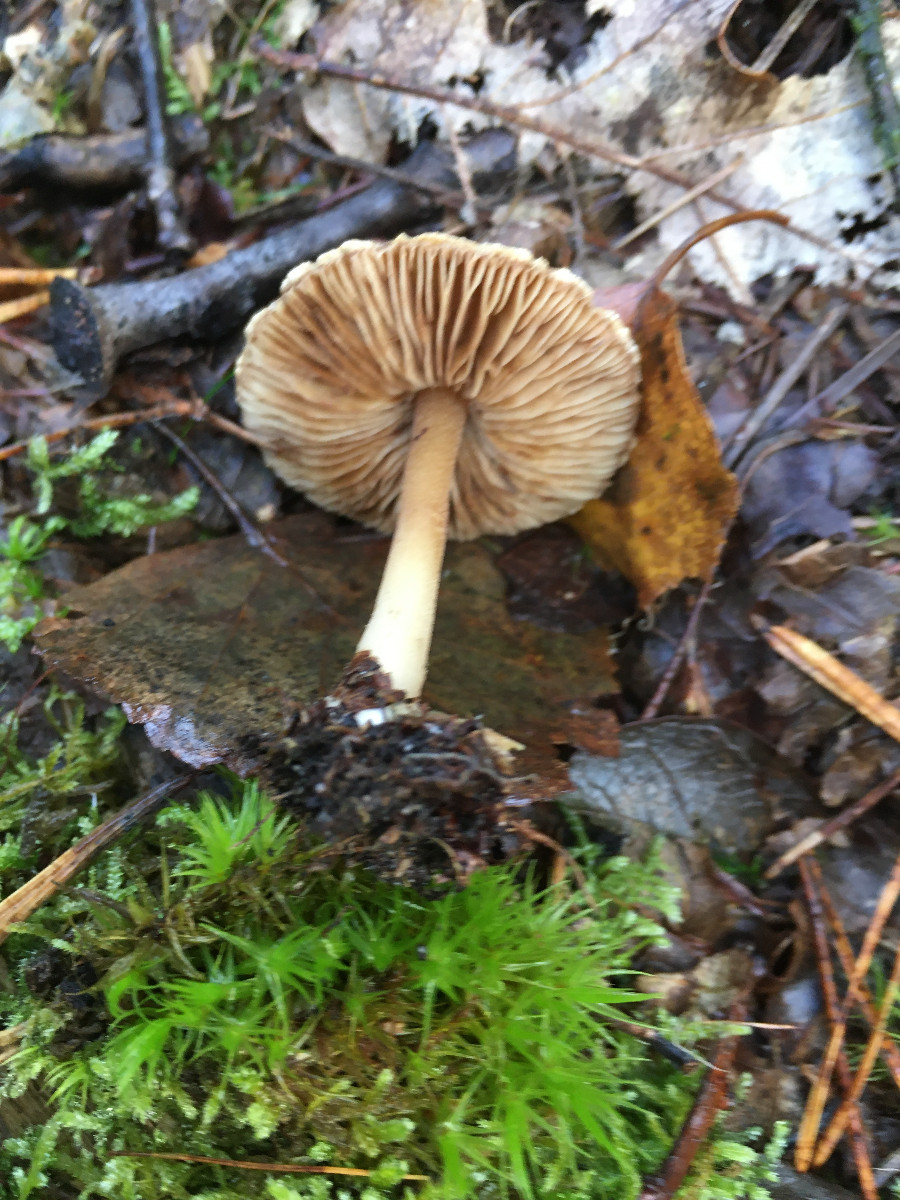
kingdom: Fungi
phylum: Basidiomycota
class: Agaricomycetes
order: Agaricales
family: Inocybaceae
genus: Inocybe
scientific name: Inocybe
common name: trævlhat
